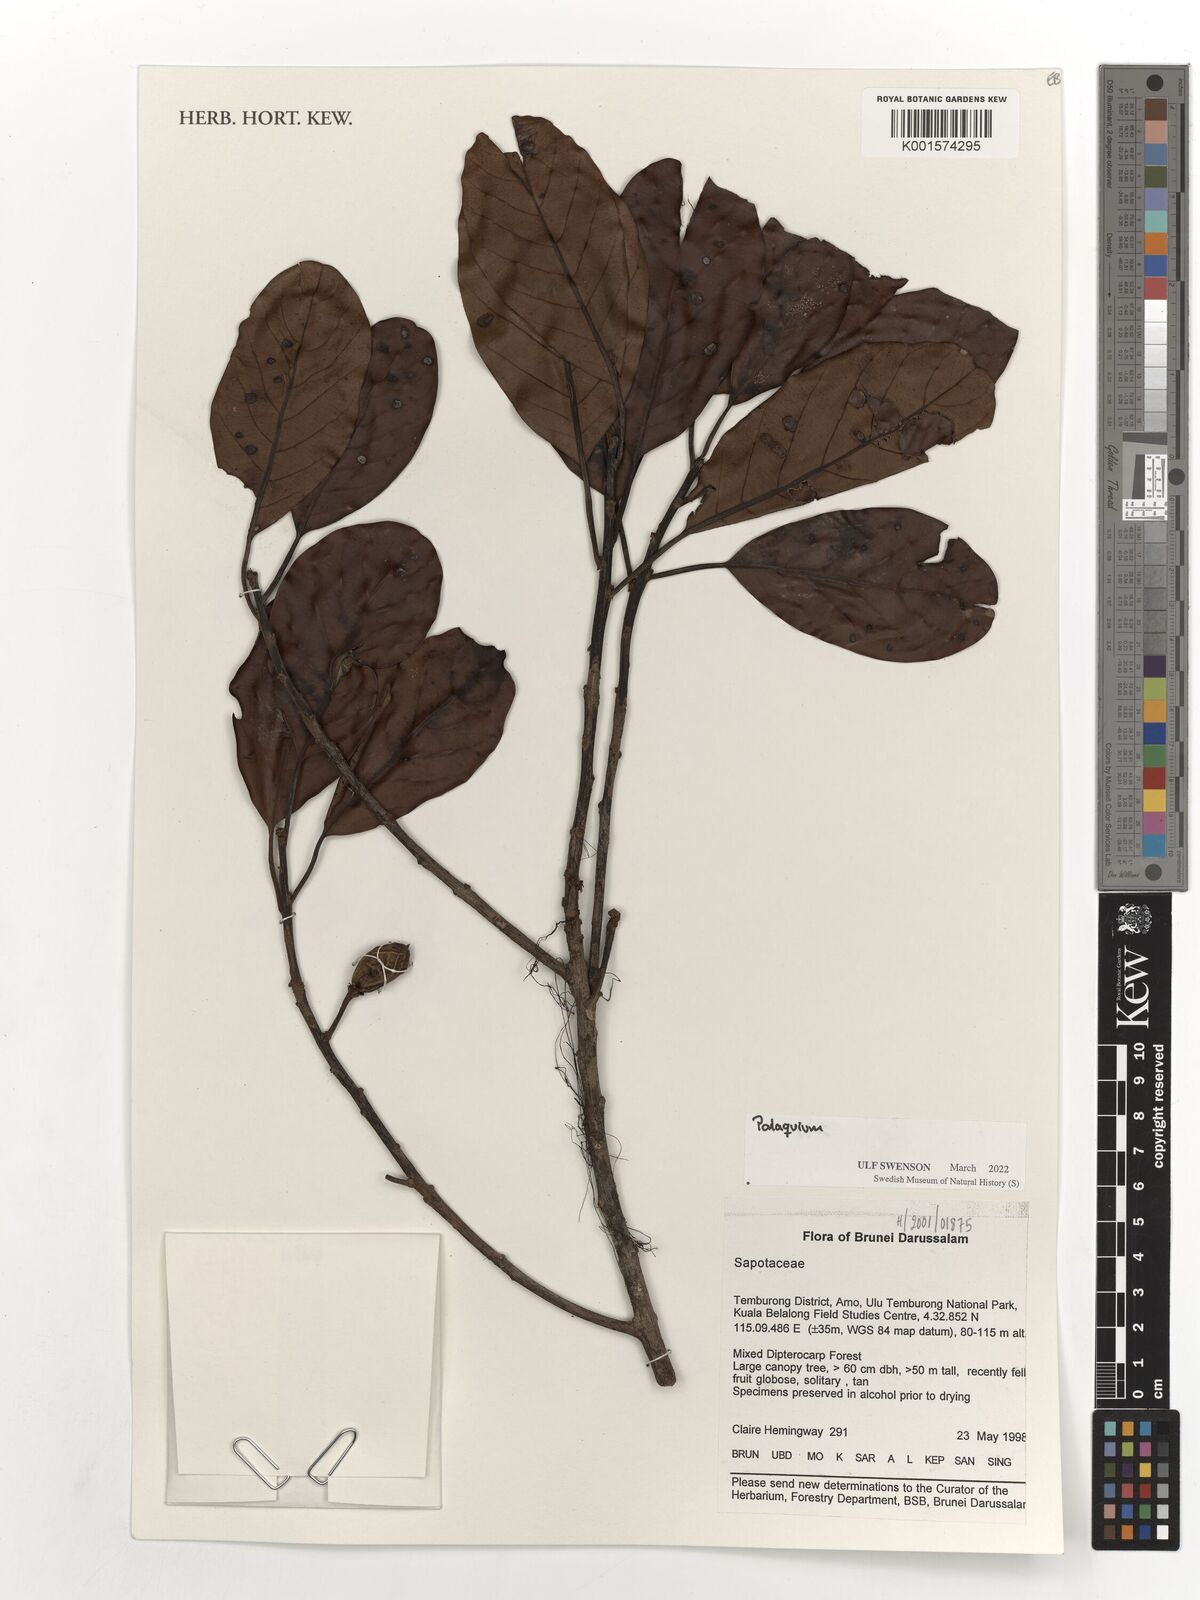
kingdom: Plantae
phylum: Tracheophyta
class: Magnoliopsida
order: Ericales
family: Sapotaceae
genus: Palaquium
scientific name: Palaquium
